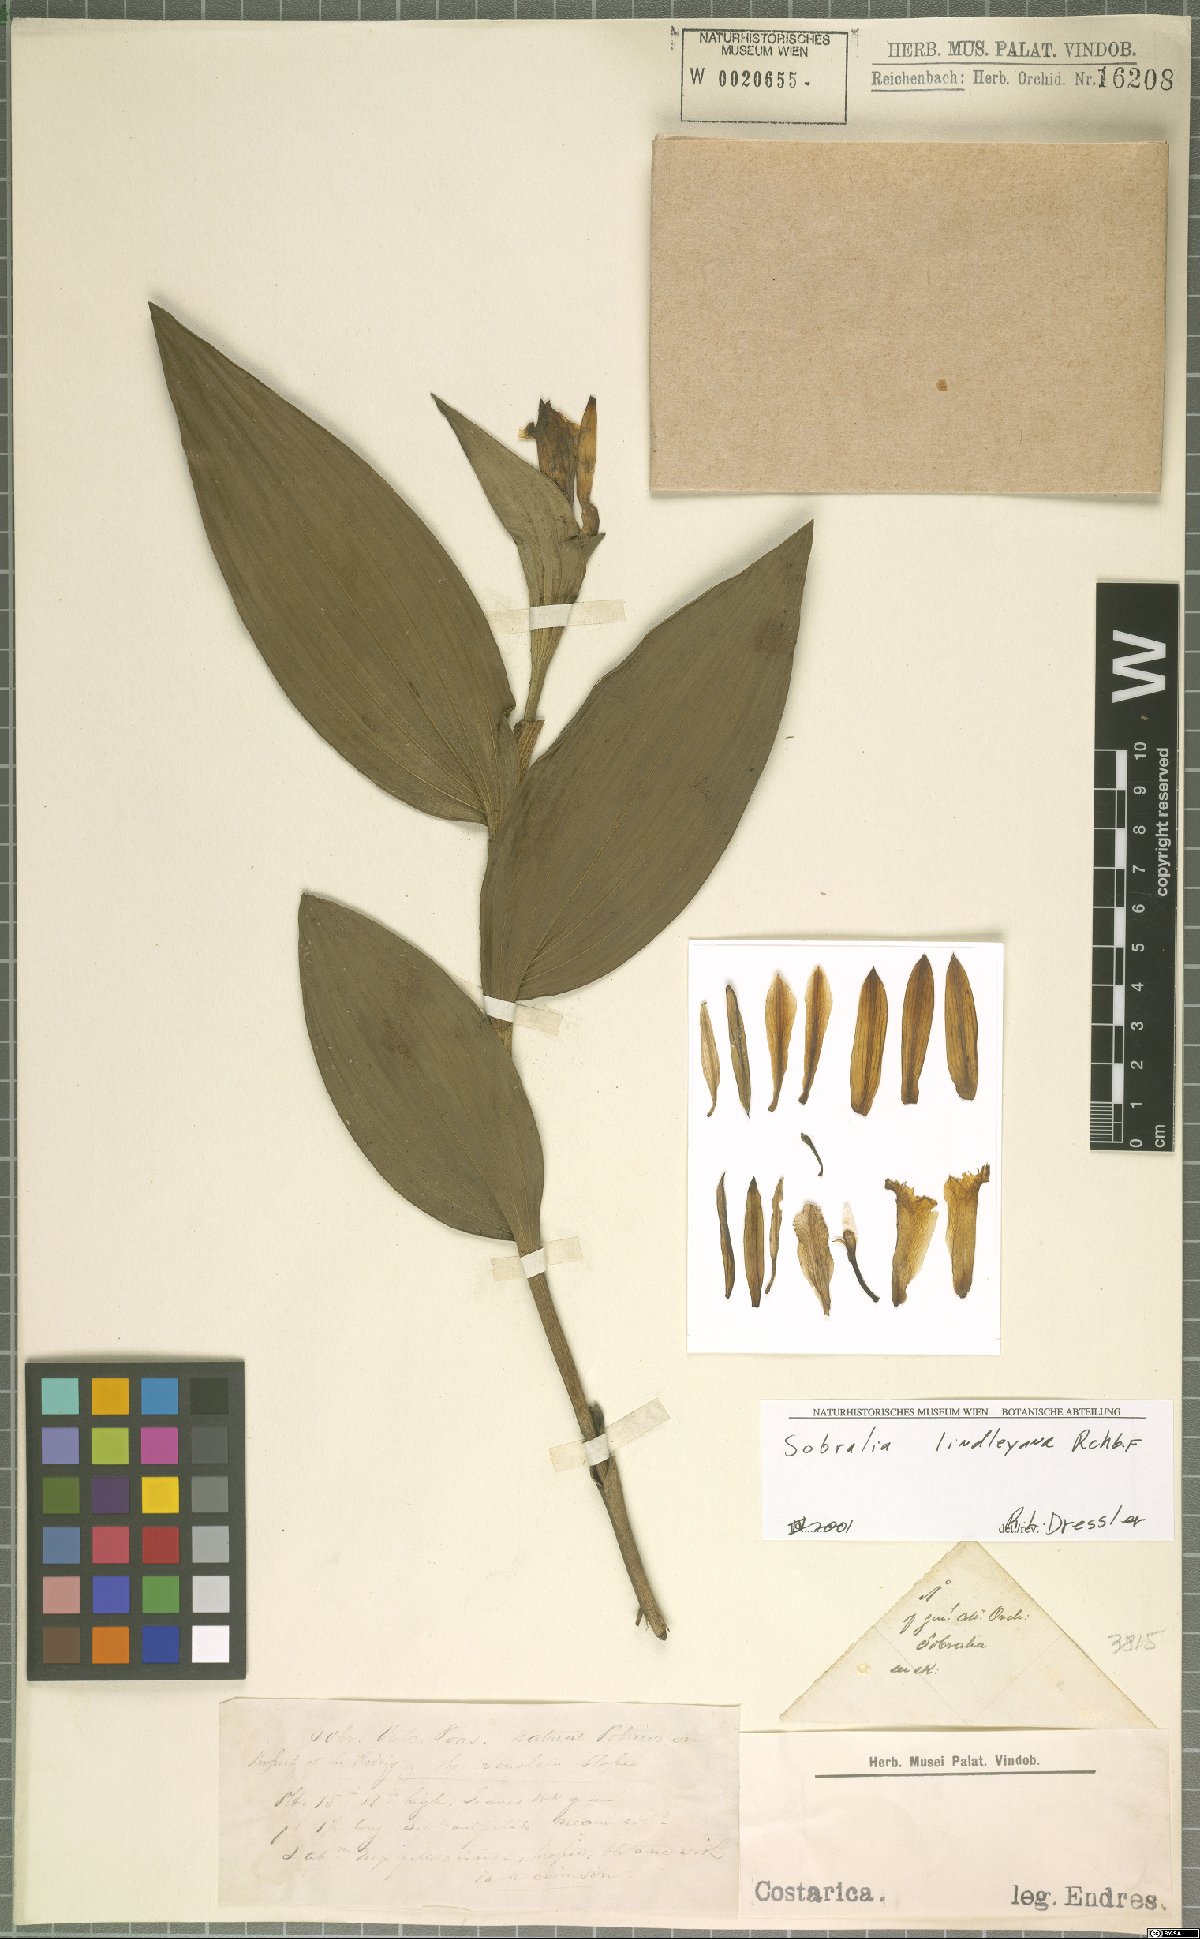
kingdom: Plantae
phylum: Tracheophyta
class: Liliopsida
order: Asparagales
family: Orchidaceae
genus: Sobralia
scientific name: Sobralia lindleyana
